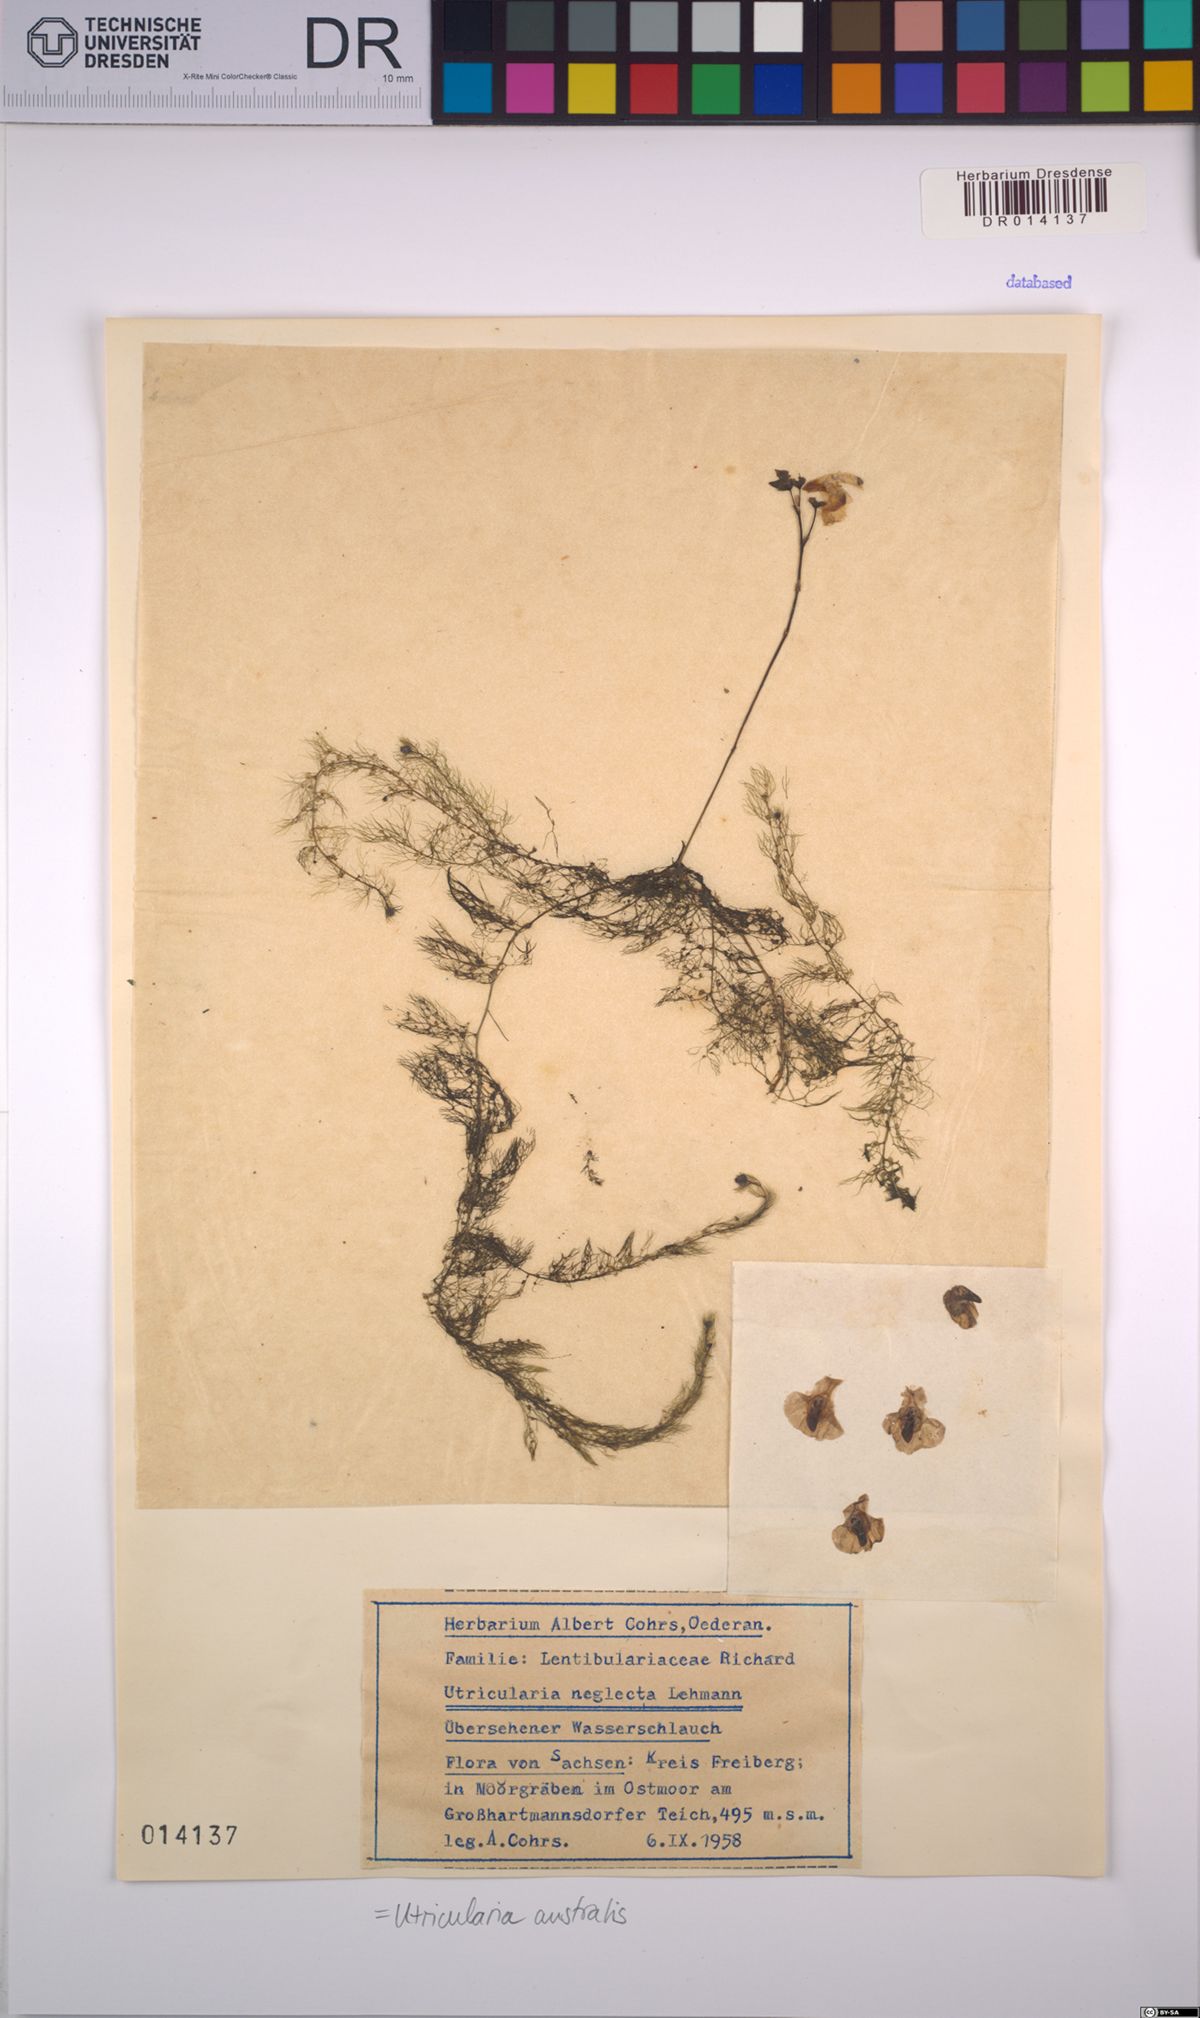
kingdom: Plantae
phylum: Tracheophyta
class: Magnoliopsida
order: Lamiales
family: Lentibulariaceae
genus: Utricularia
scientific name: Utricularia australis
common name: Bladderwort
